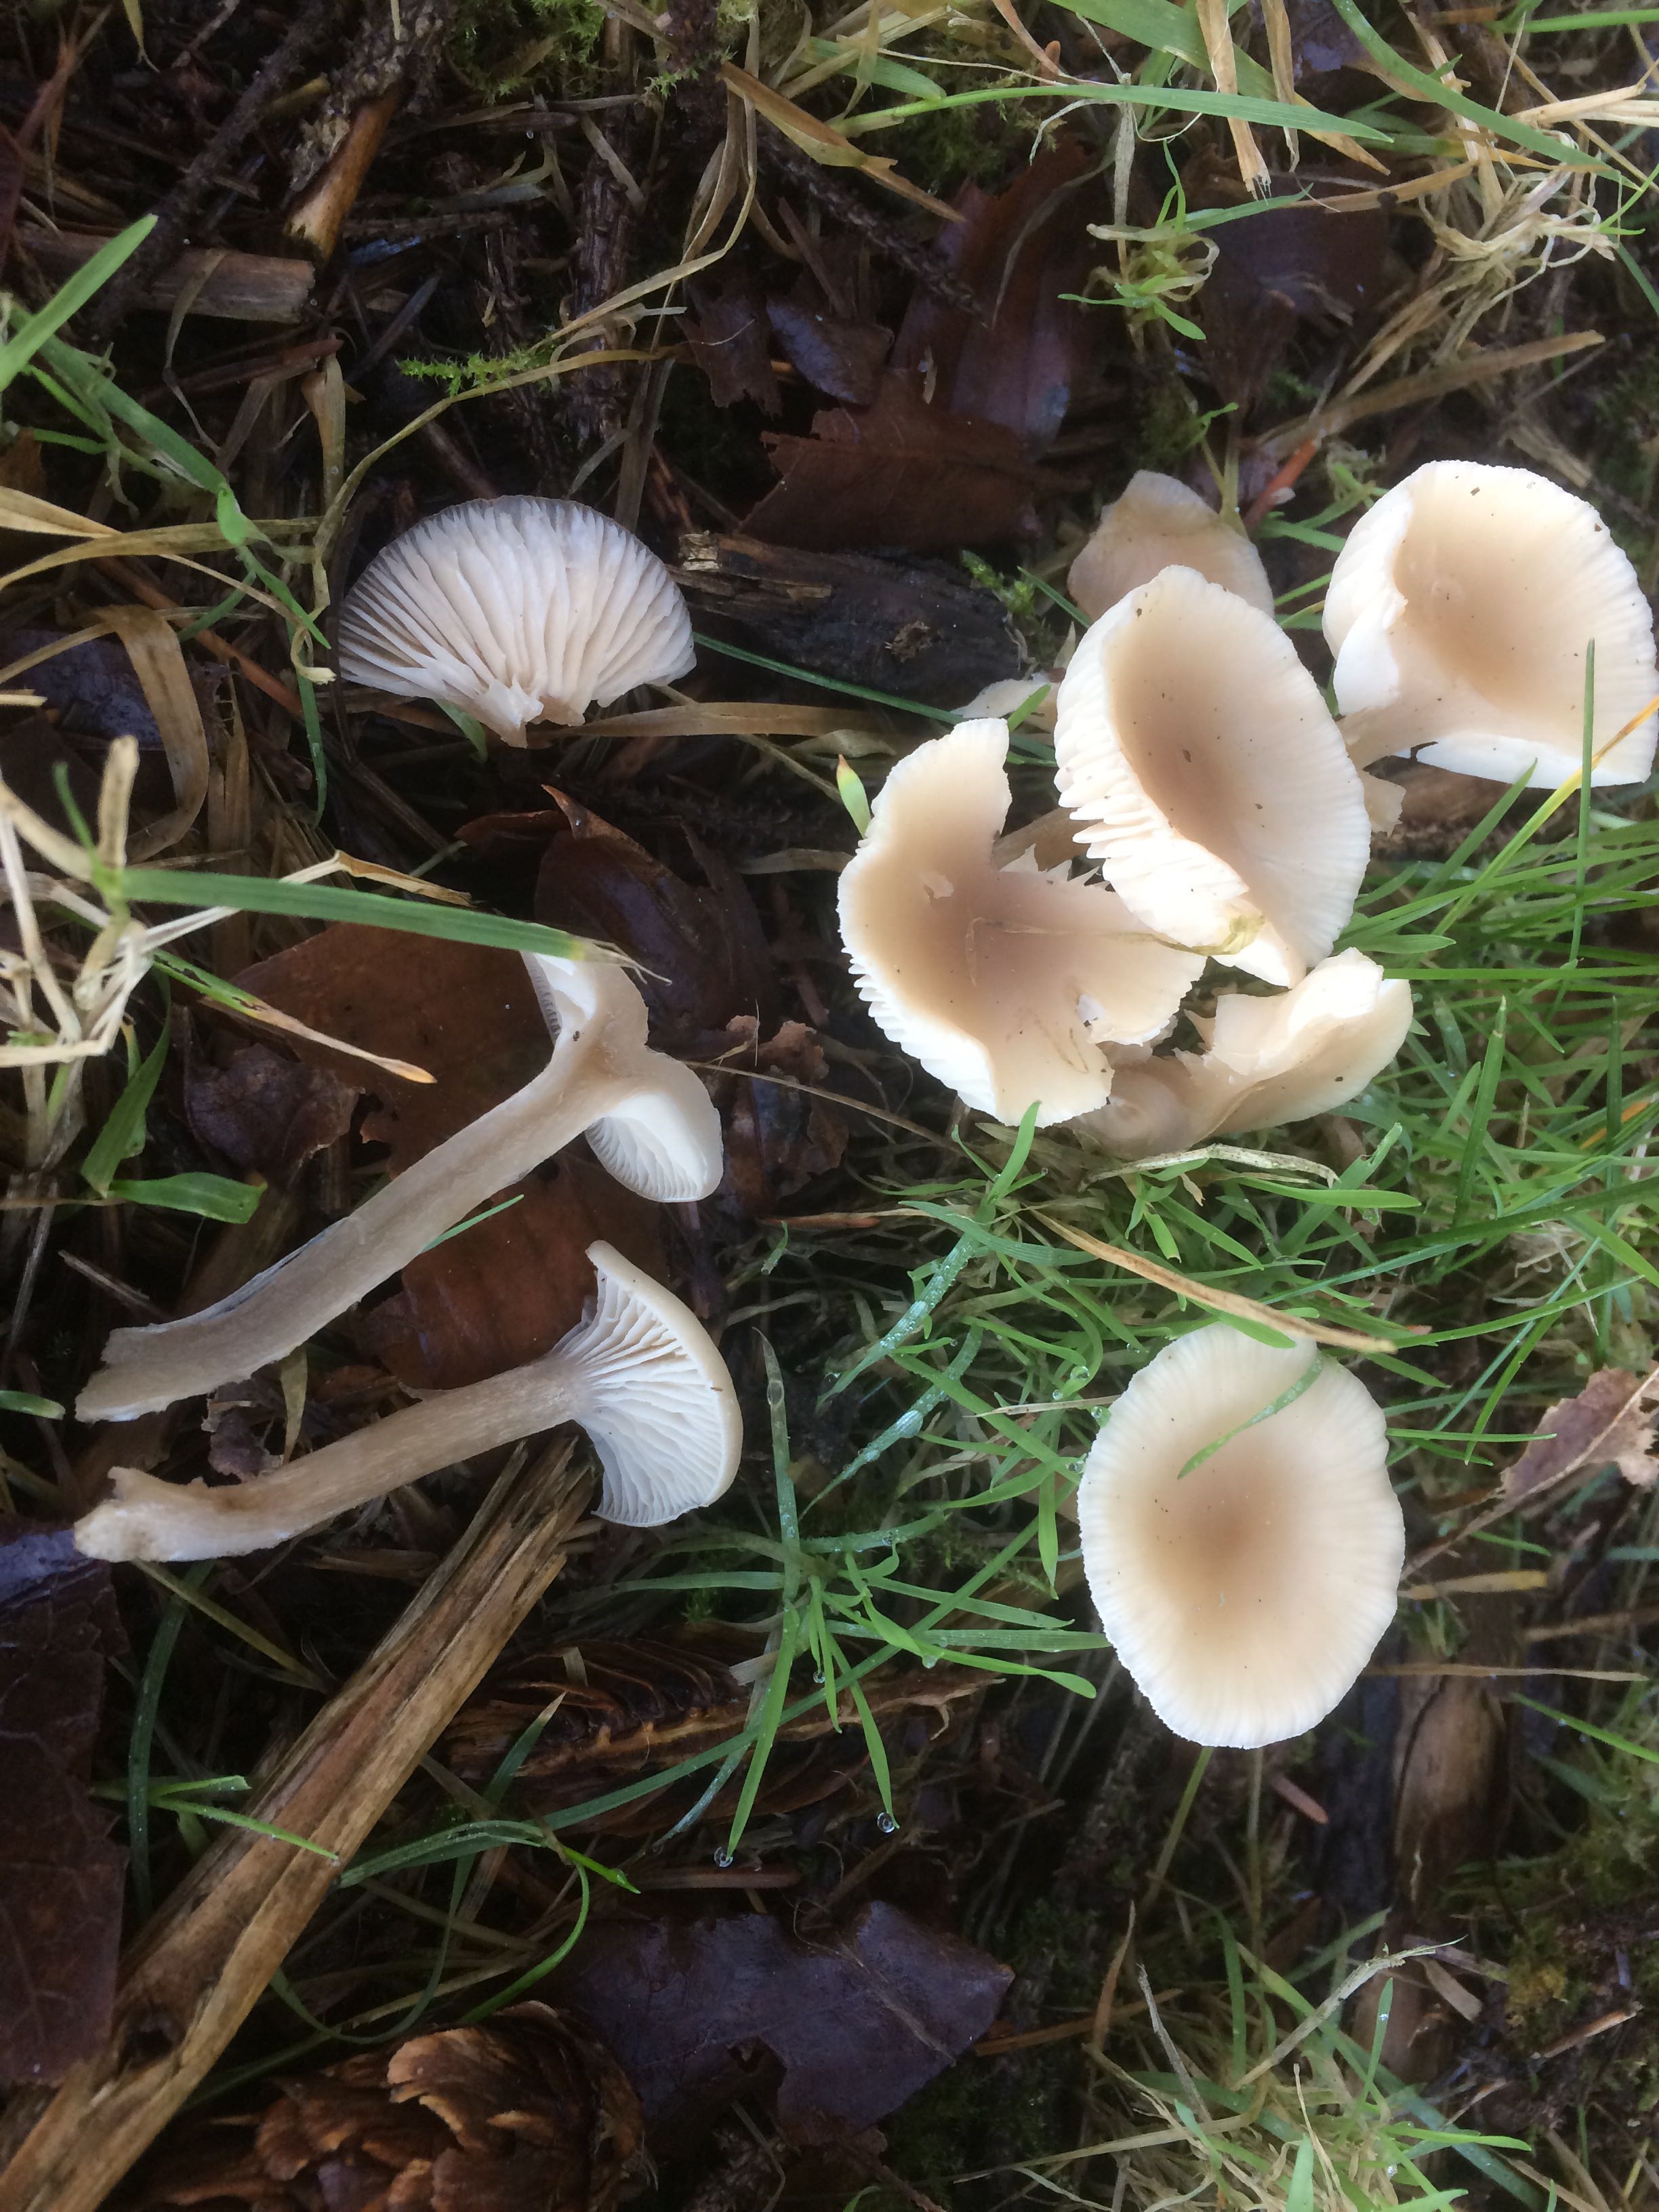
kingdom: Fungi
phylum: Basidiomycota
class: Agaricomycetes
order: Agaricales
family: Tricholomataceae
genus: Clitocybe
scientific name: Clitocybe fragrans
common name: vellugtende tragthat
